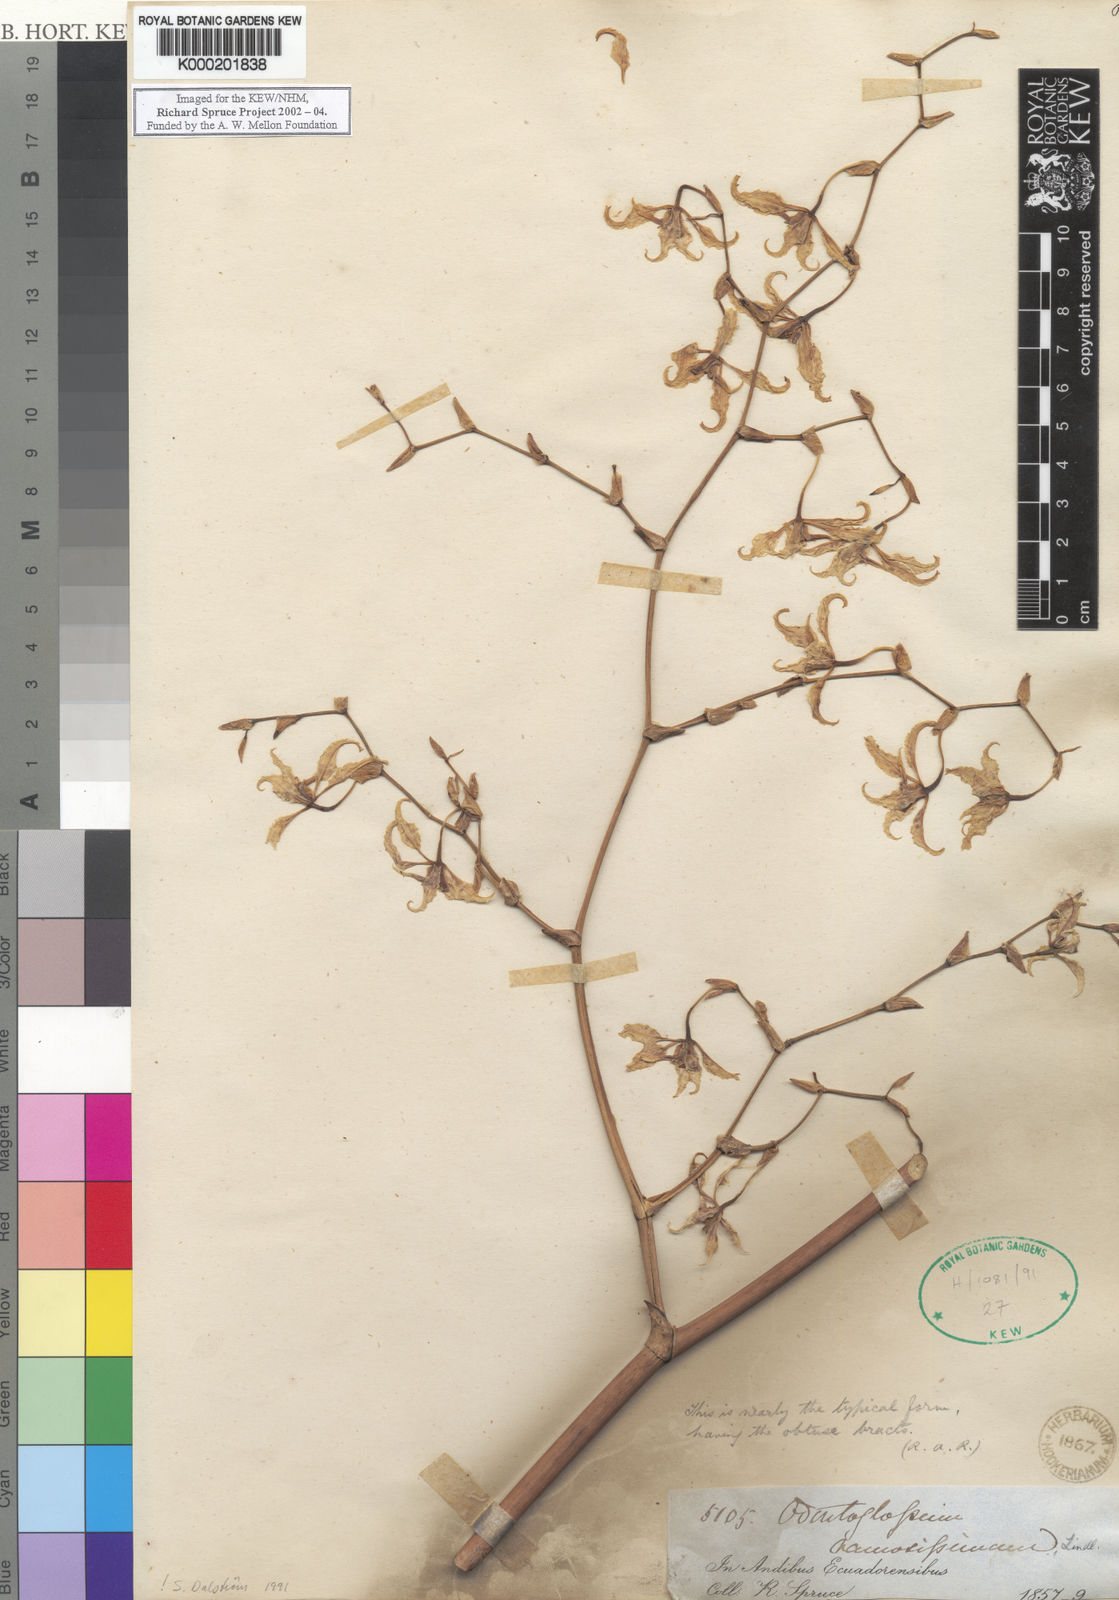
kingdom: Plantae
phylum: Tracheophyta
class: Liliopsida
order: Asparagales
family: Orchidaceae
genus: Oncidium
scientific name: Oncidium
